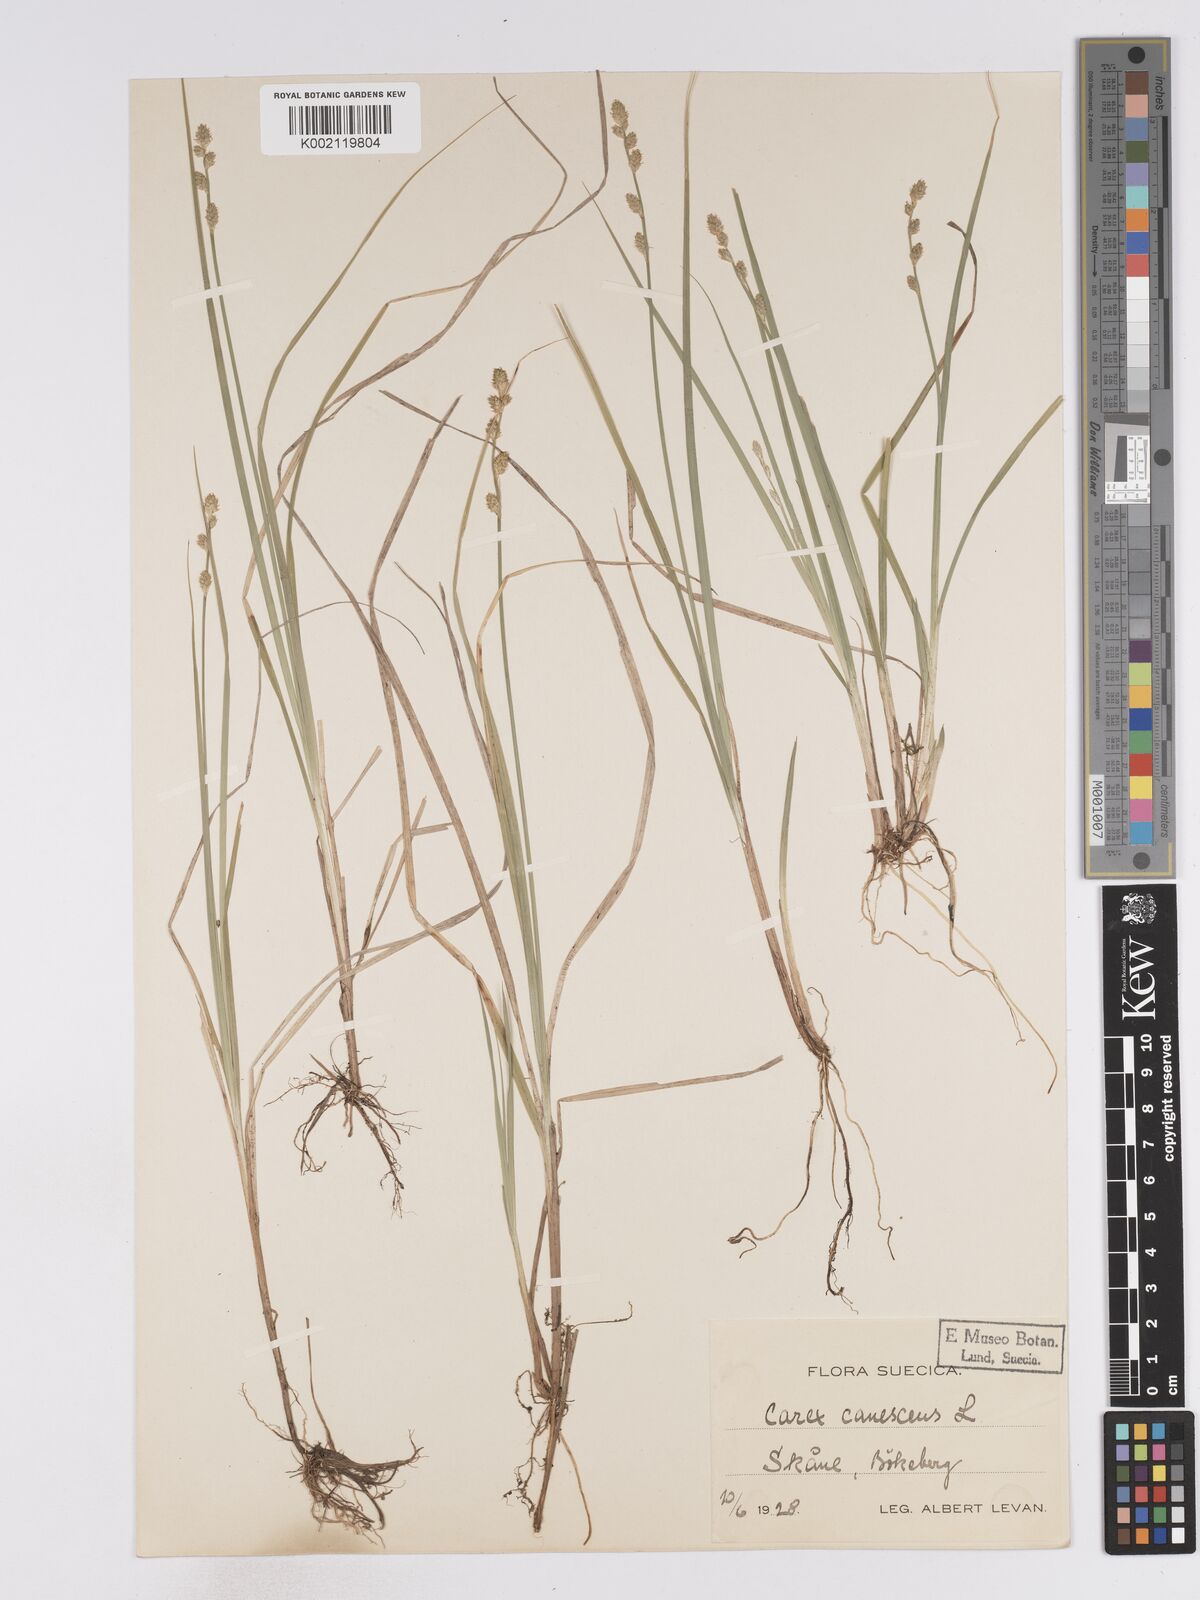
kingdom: Plantae
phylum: Tracheophyta
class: Liliopsida
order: Poales
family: Cyperaceae
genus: Carex
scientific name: Carex curta
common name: White sedge
